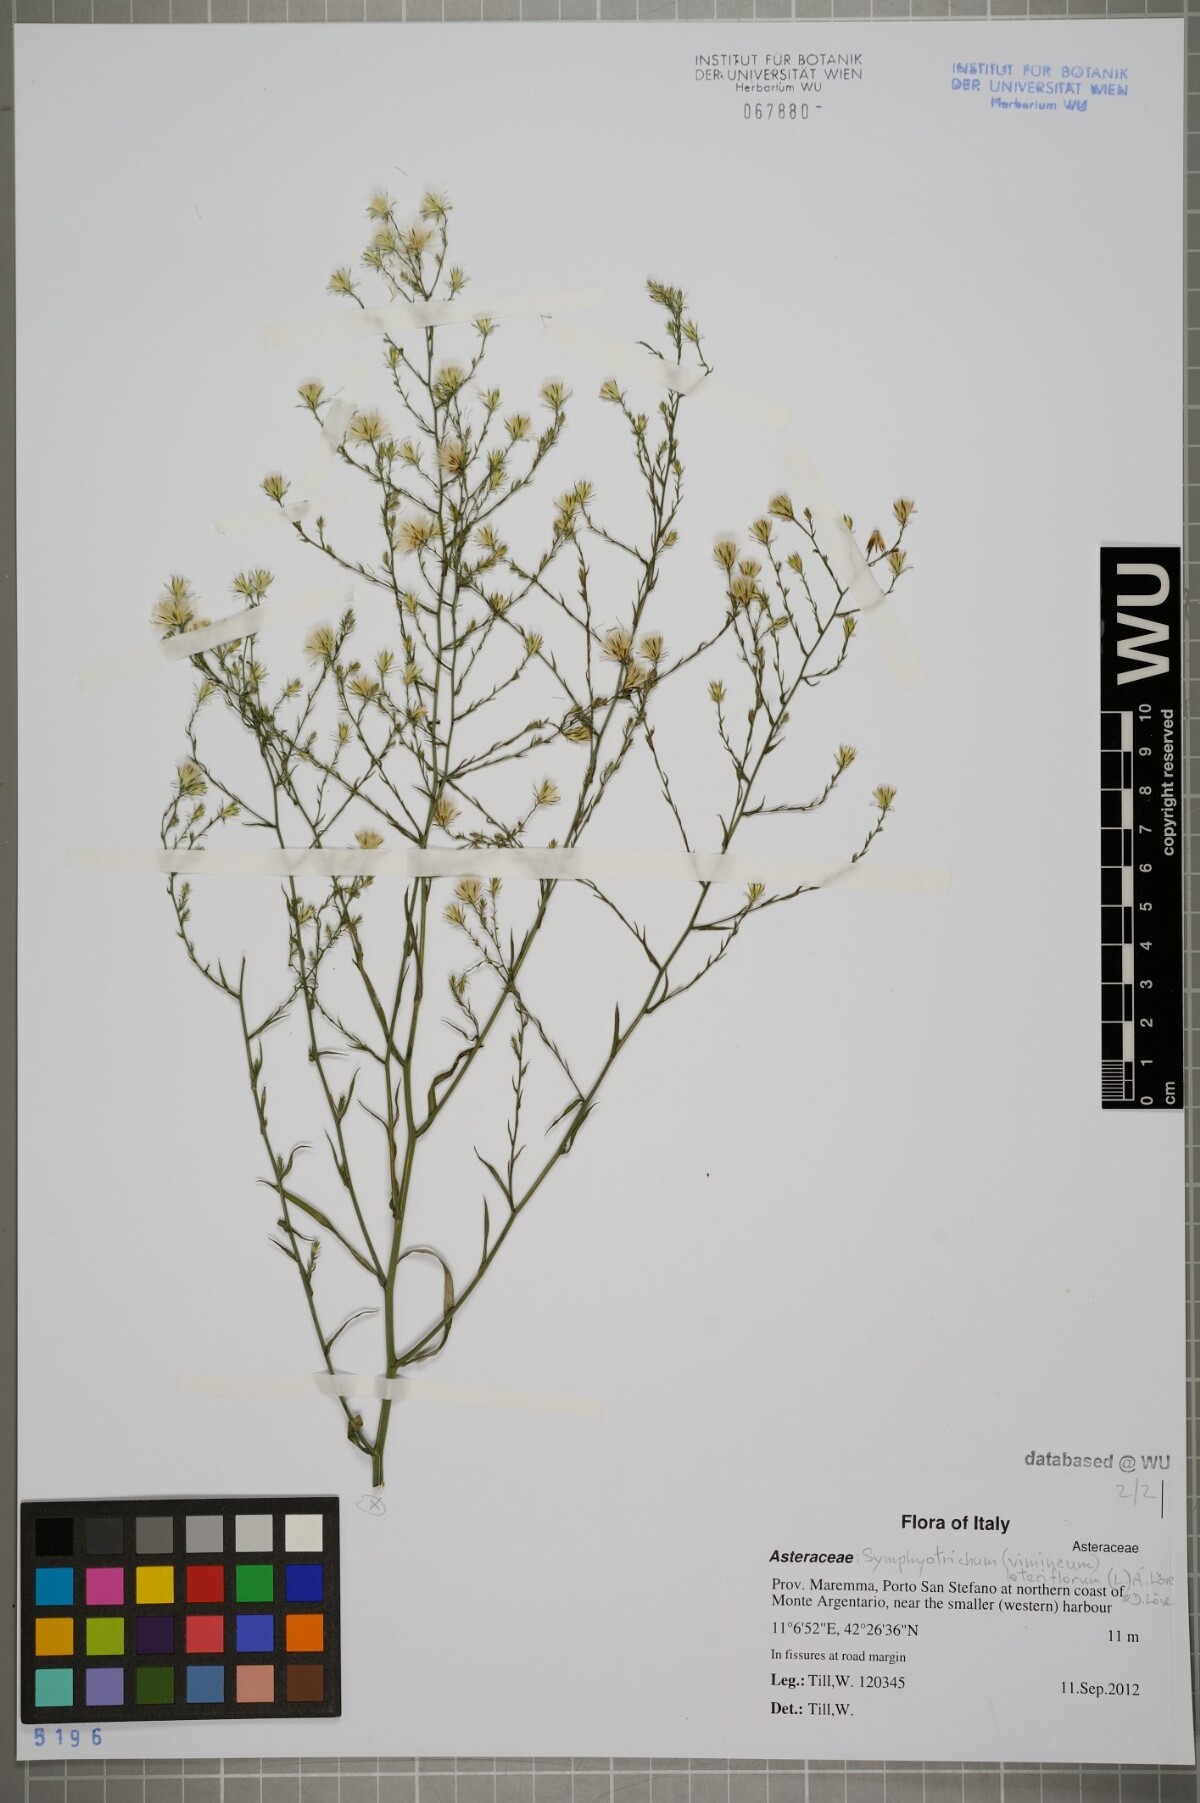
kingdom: Plantae
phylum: Tracheophyta
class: Magnoliopsida
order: Asterales
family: Asteraceae
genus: Symphyotrichum
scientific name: Symphyotrichum lateriflorum
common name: Calico aster
